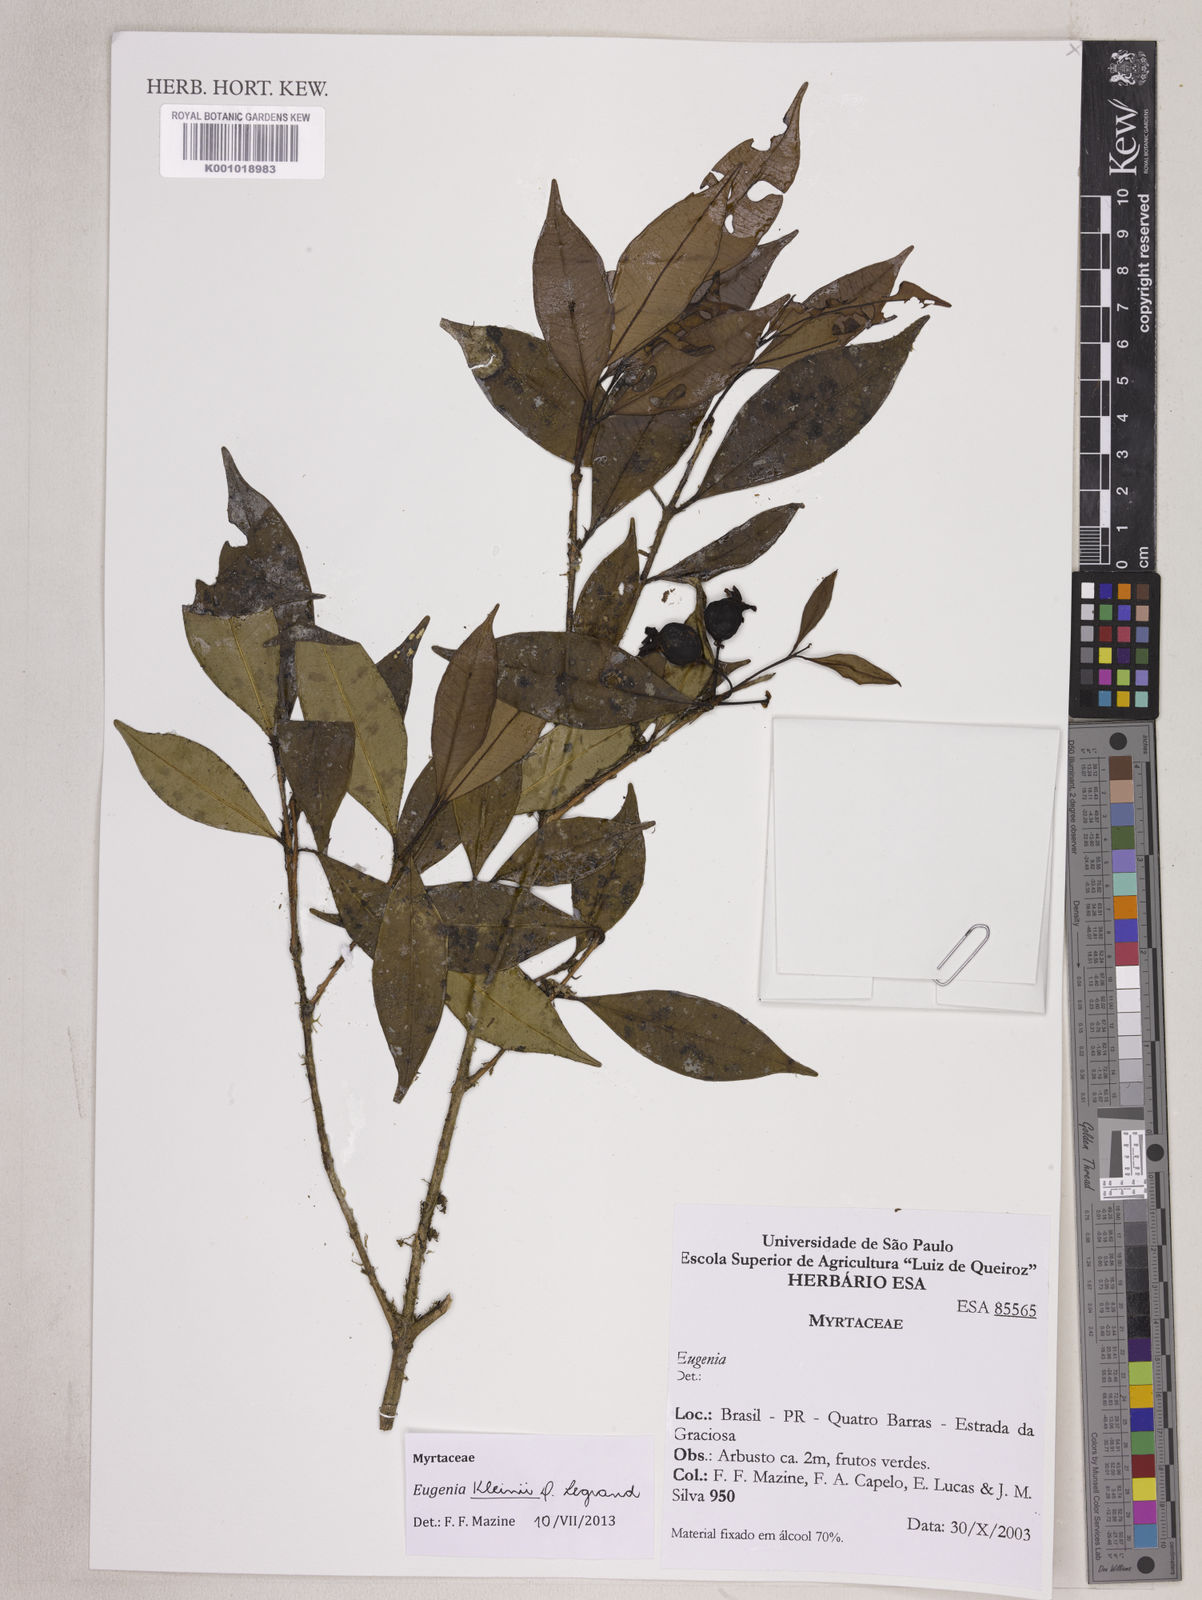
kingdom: Plantae
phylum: Tracheophyta
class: Magnoliopsida
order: Myrtales
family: Myrtaceae
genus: Eugenia
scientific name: Eugenia kleinii
